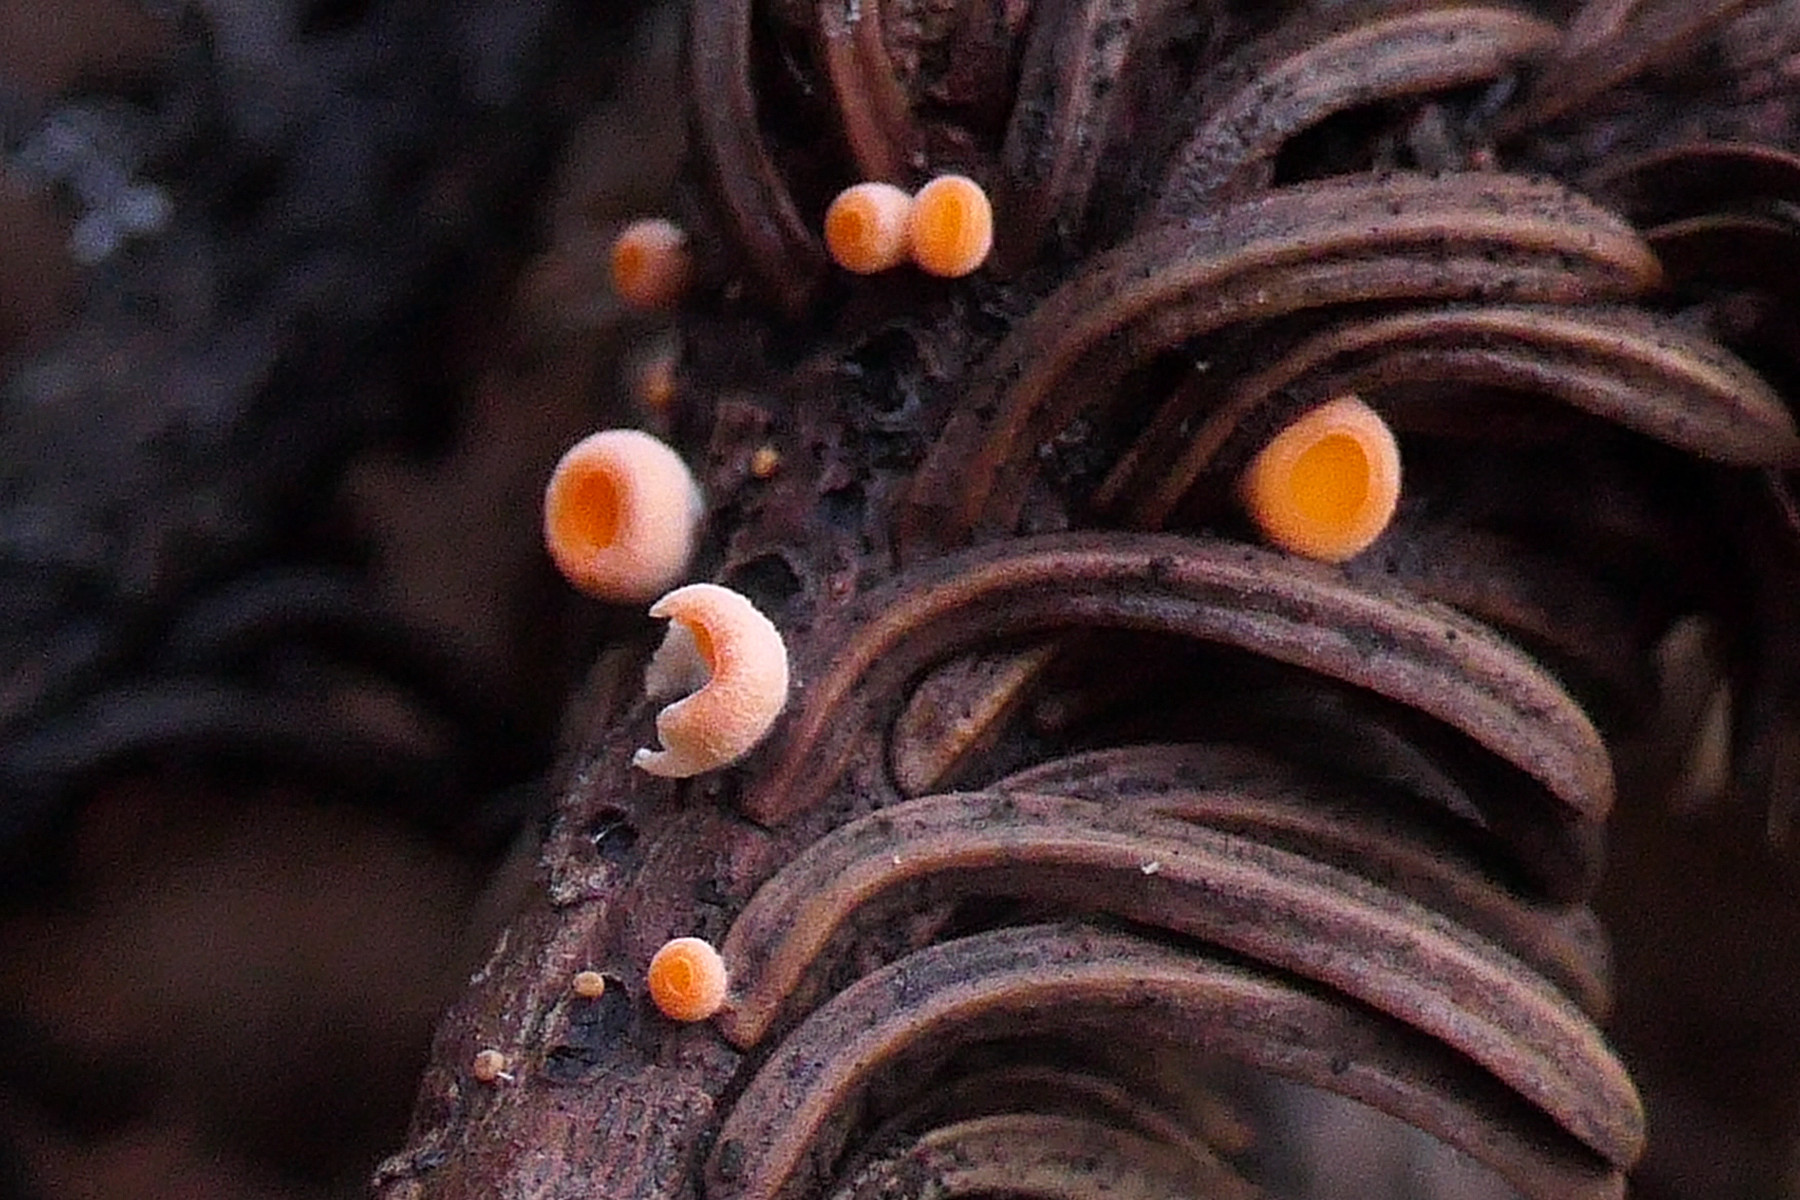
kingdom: Fungi
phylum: Ascomycota
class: Pezizomycetes
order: Pezizales
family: Sarcoscyphaceae
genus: Pithya
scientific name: Pithya vulgaris
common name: stor dukatbæger
